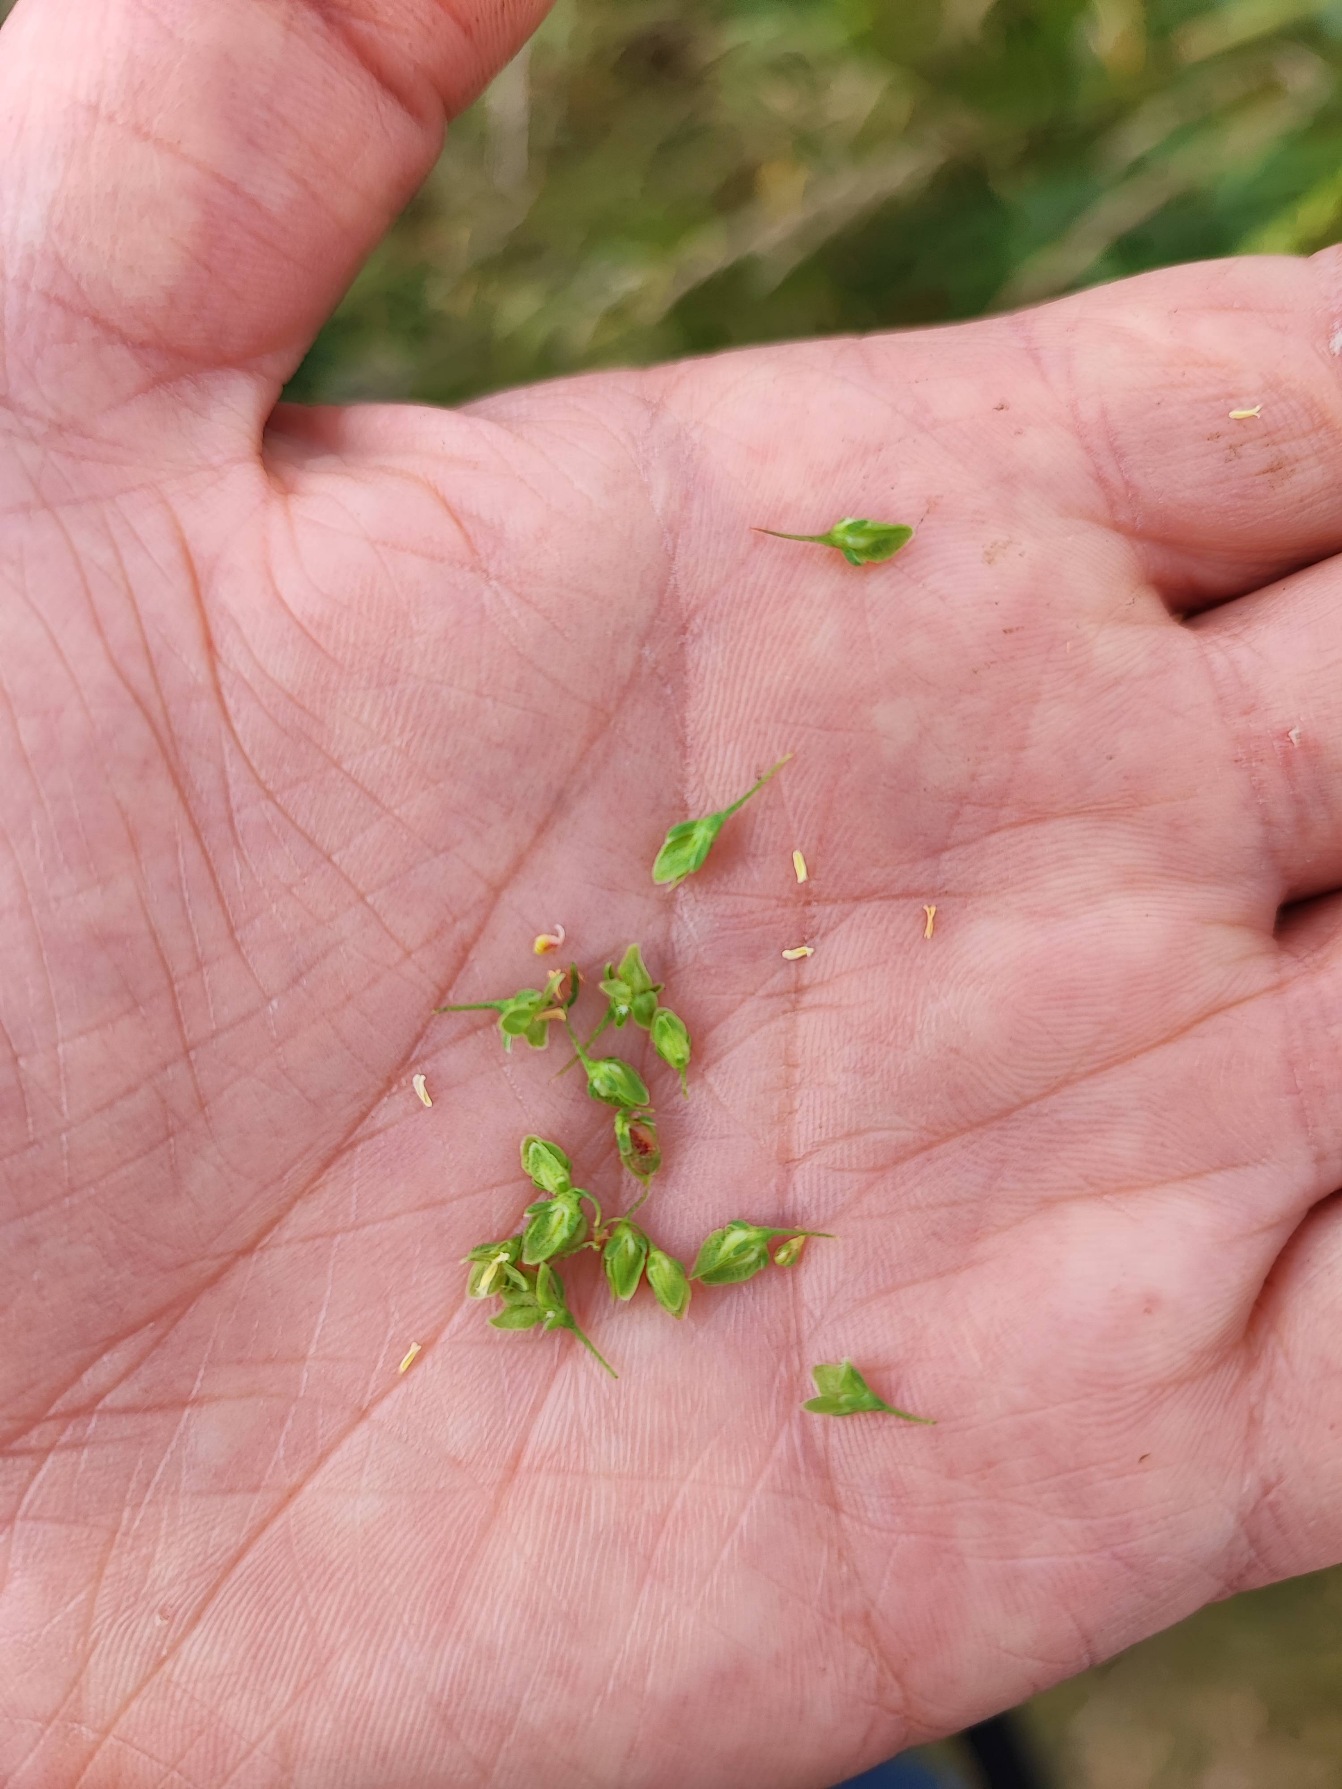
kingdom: Animalia
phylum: Arthropoda
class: Insecta
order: Diptera
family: Cecidomyiidae
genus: Contarinia
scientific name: Contarinia rumicis
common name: Skræppegalmyg
